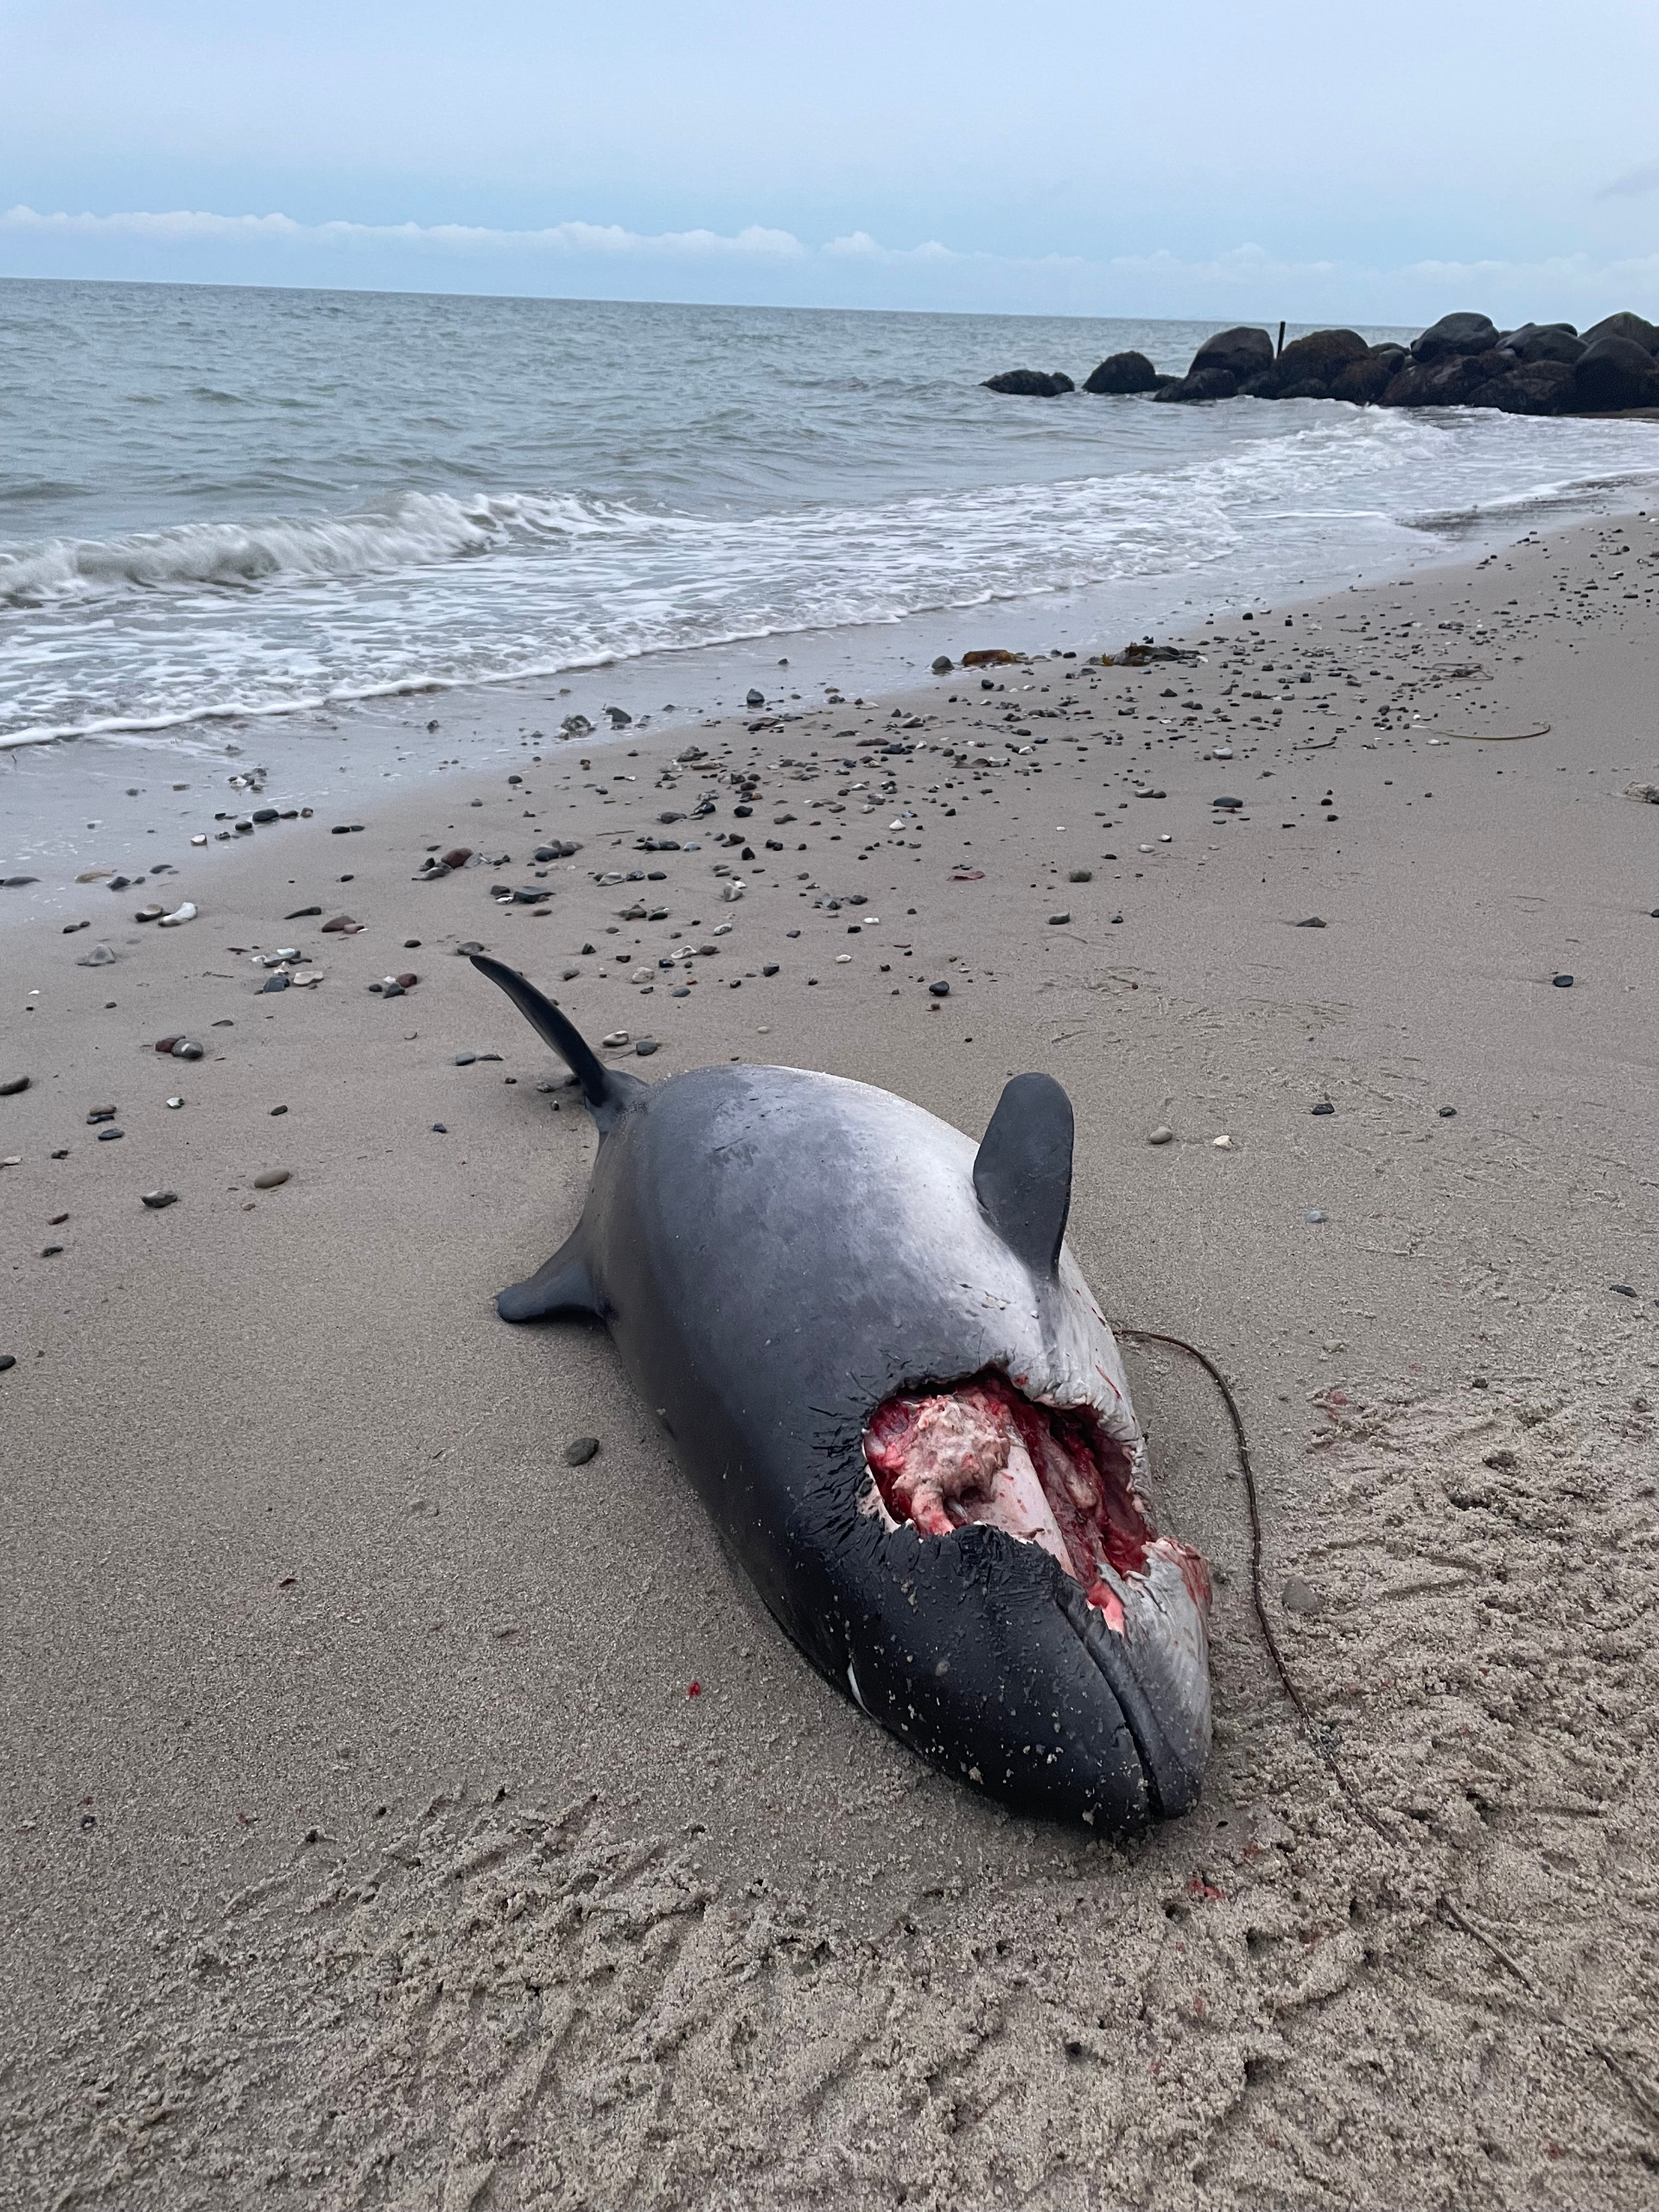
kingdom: Animalia
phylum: Chordata
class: Mammalia
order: Cetacea
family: Phocoenidae
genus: Phocoena
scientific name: Phocoena phocoena
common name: Marsvin
